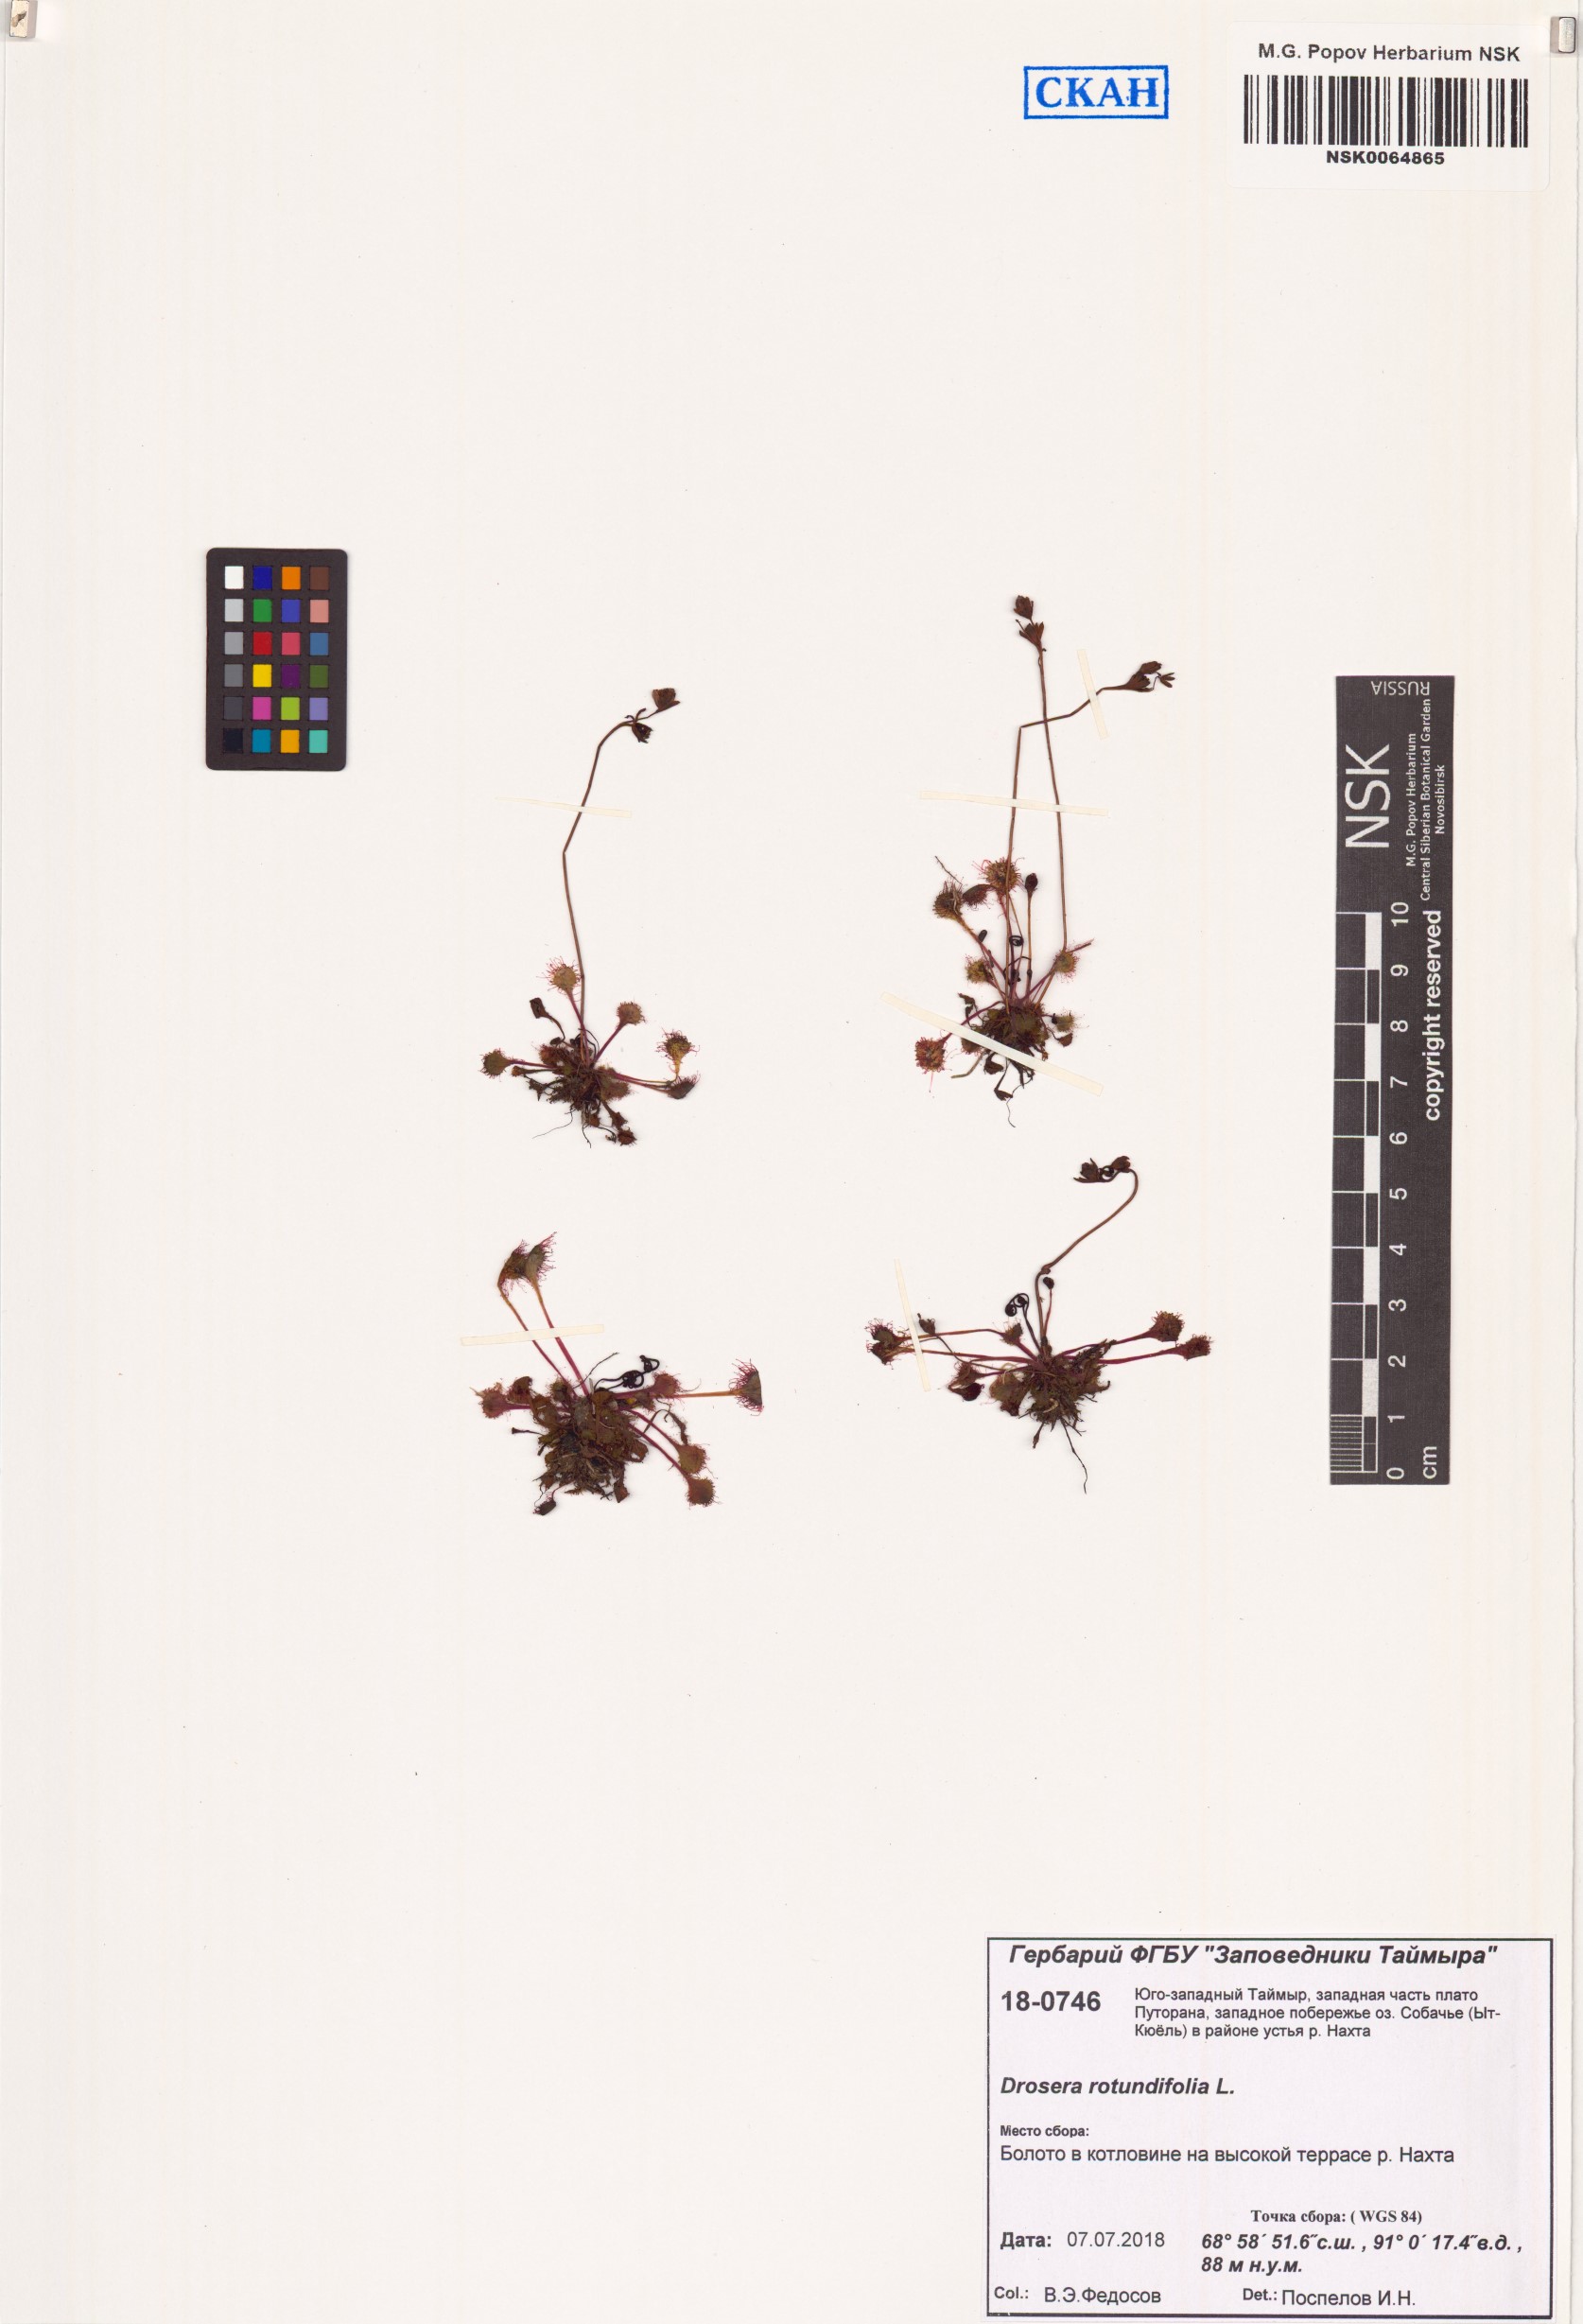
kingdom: Plantae
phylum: Tracheophyta
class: Magnoliopsida
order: Caryophyllales
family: Droseraceae
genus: Drosera
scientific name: Drosera rotundifolia
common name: Round-leaved sundew
